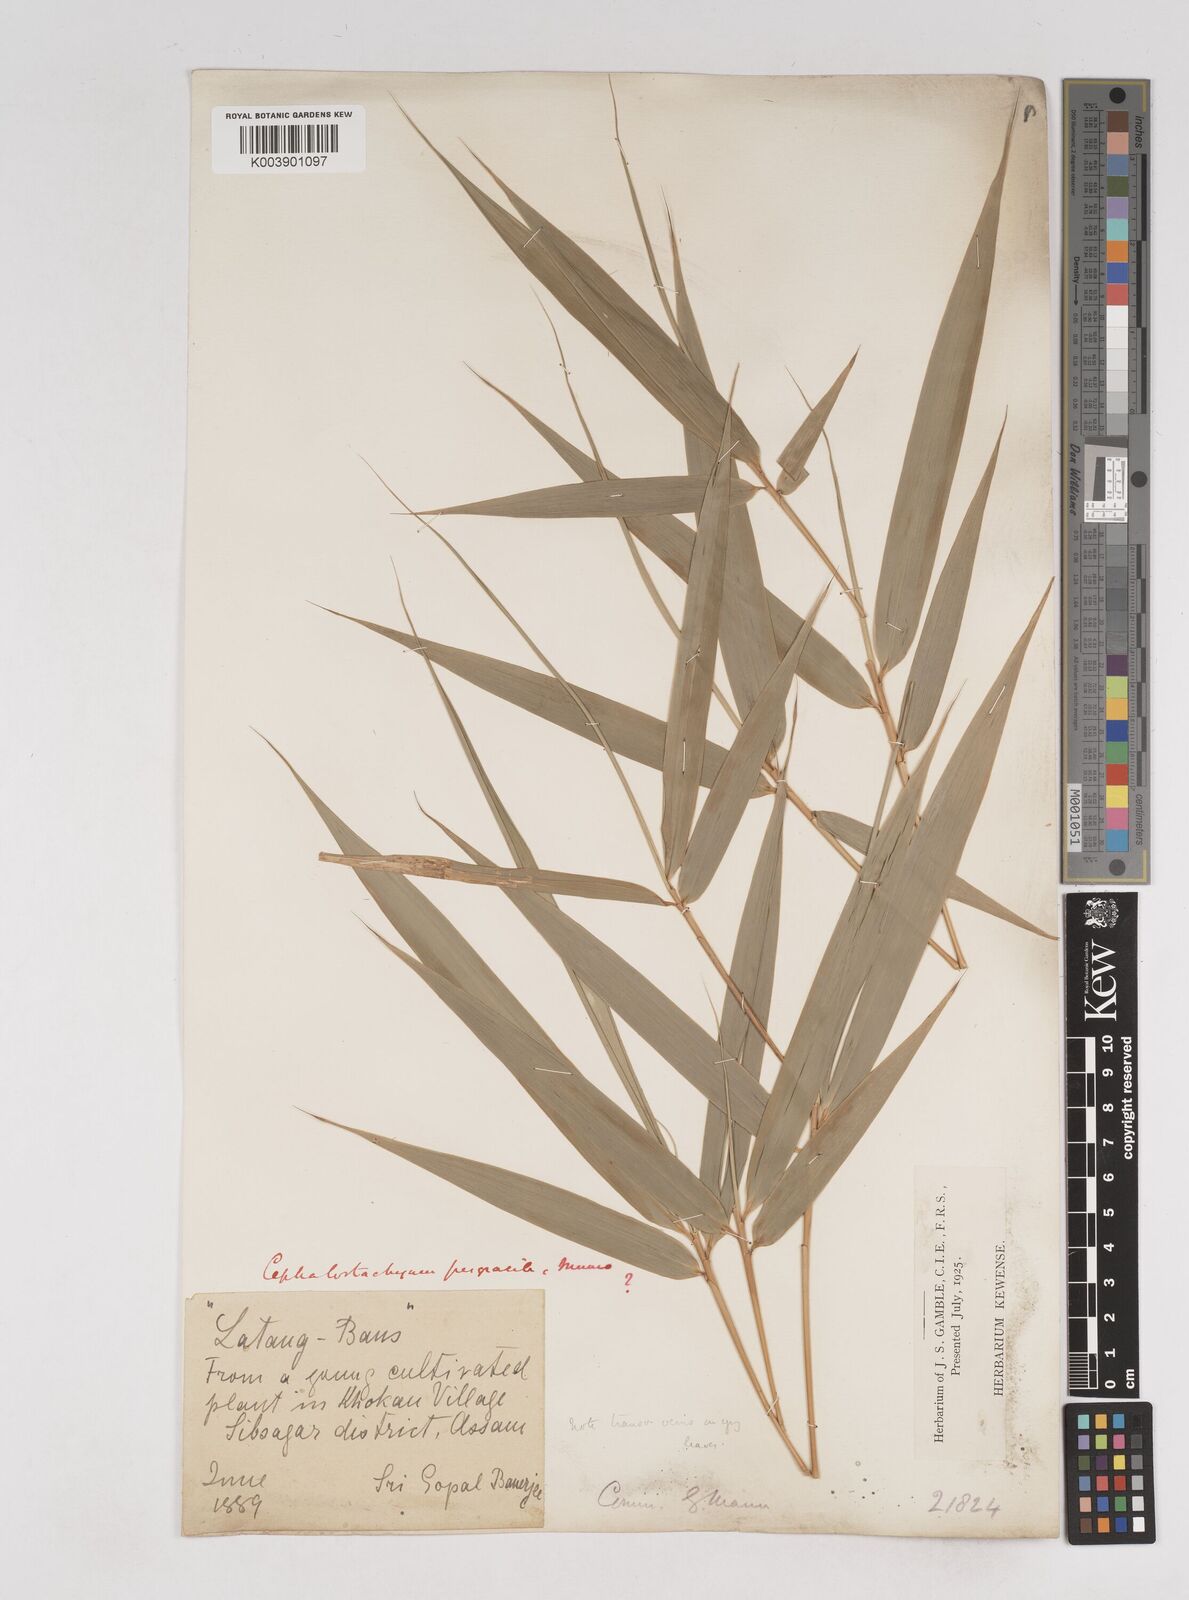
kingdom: Plantae
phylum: Tracheophyta
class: Liliopsida
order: Poales
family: Poaceae
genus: Schizostachyum
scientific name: Schizostachyum pergracile
